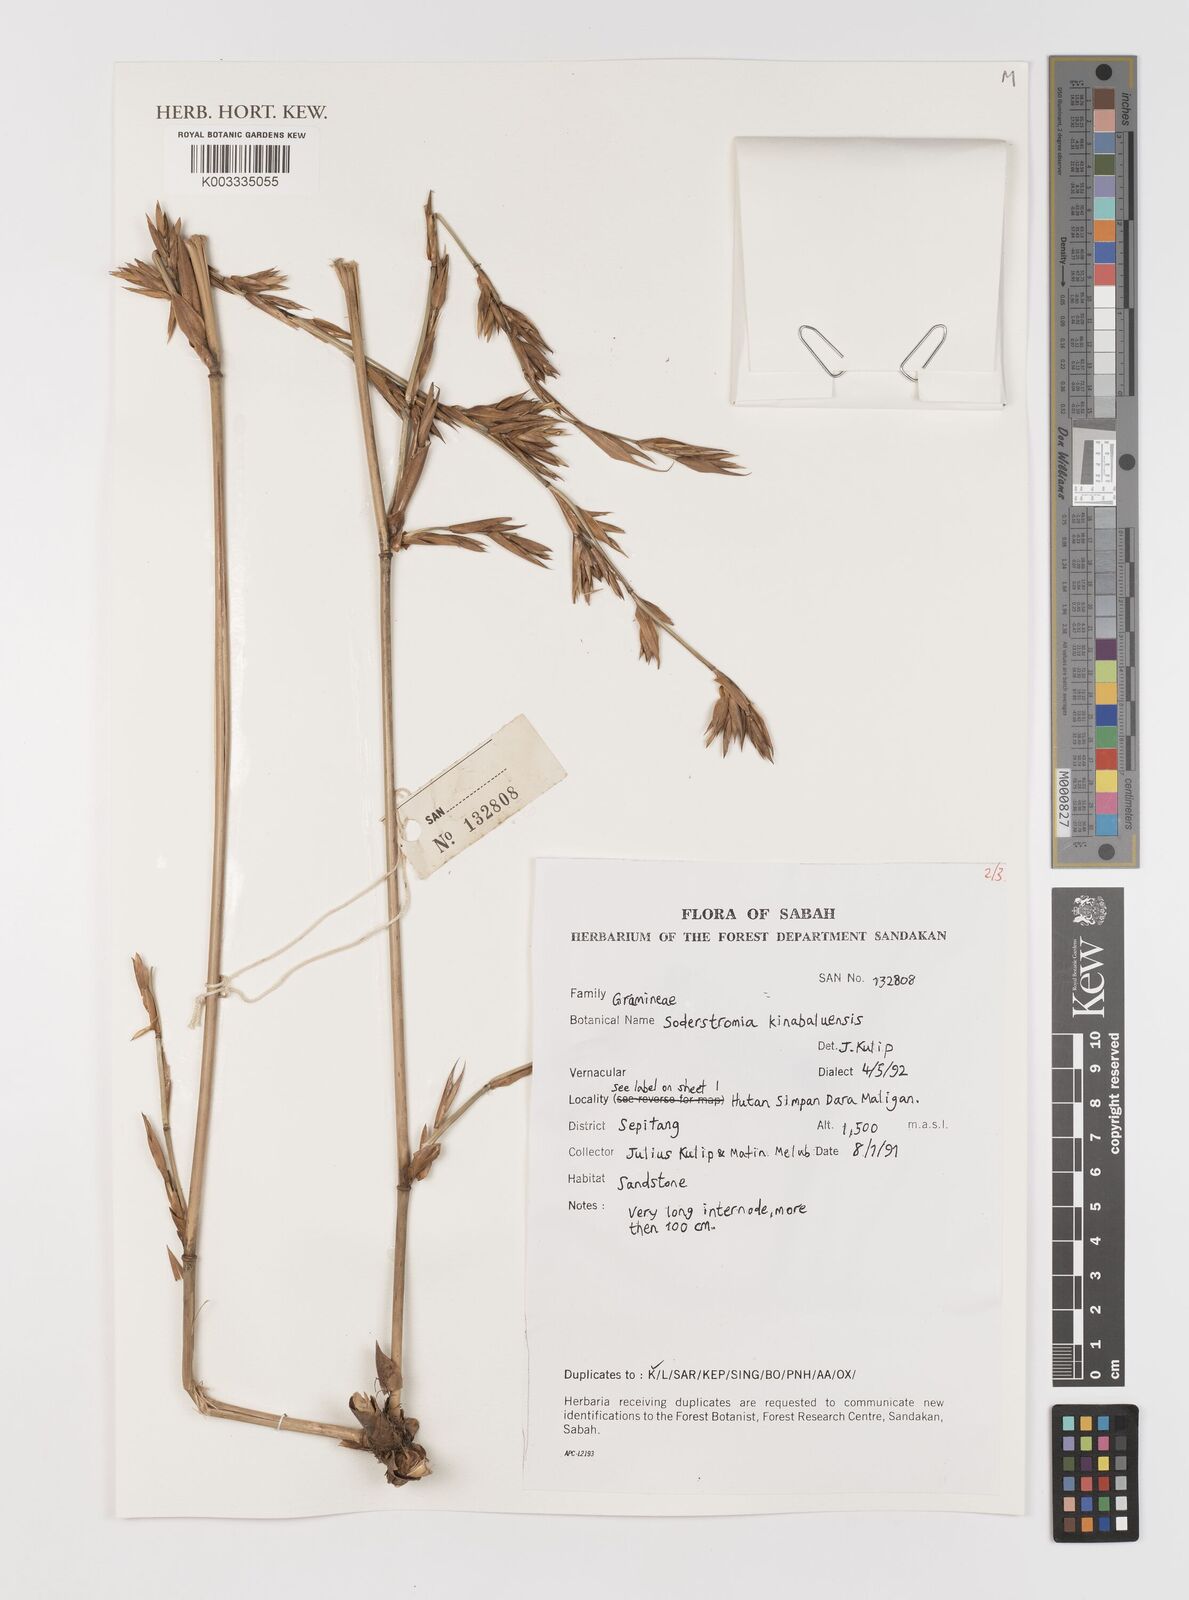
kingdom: Plantae
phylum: Tracheophyta
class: Liliopsida
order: Poales
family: Poaceae
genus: Bouteloua
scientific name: Bouteloua
